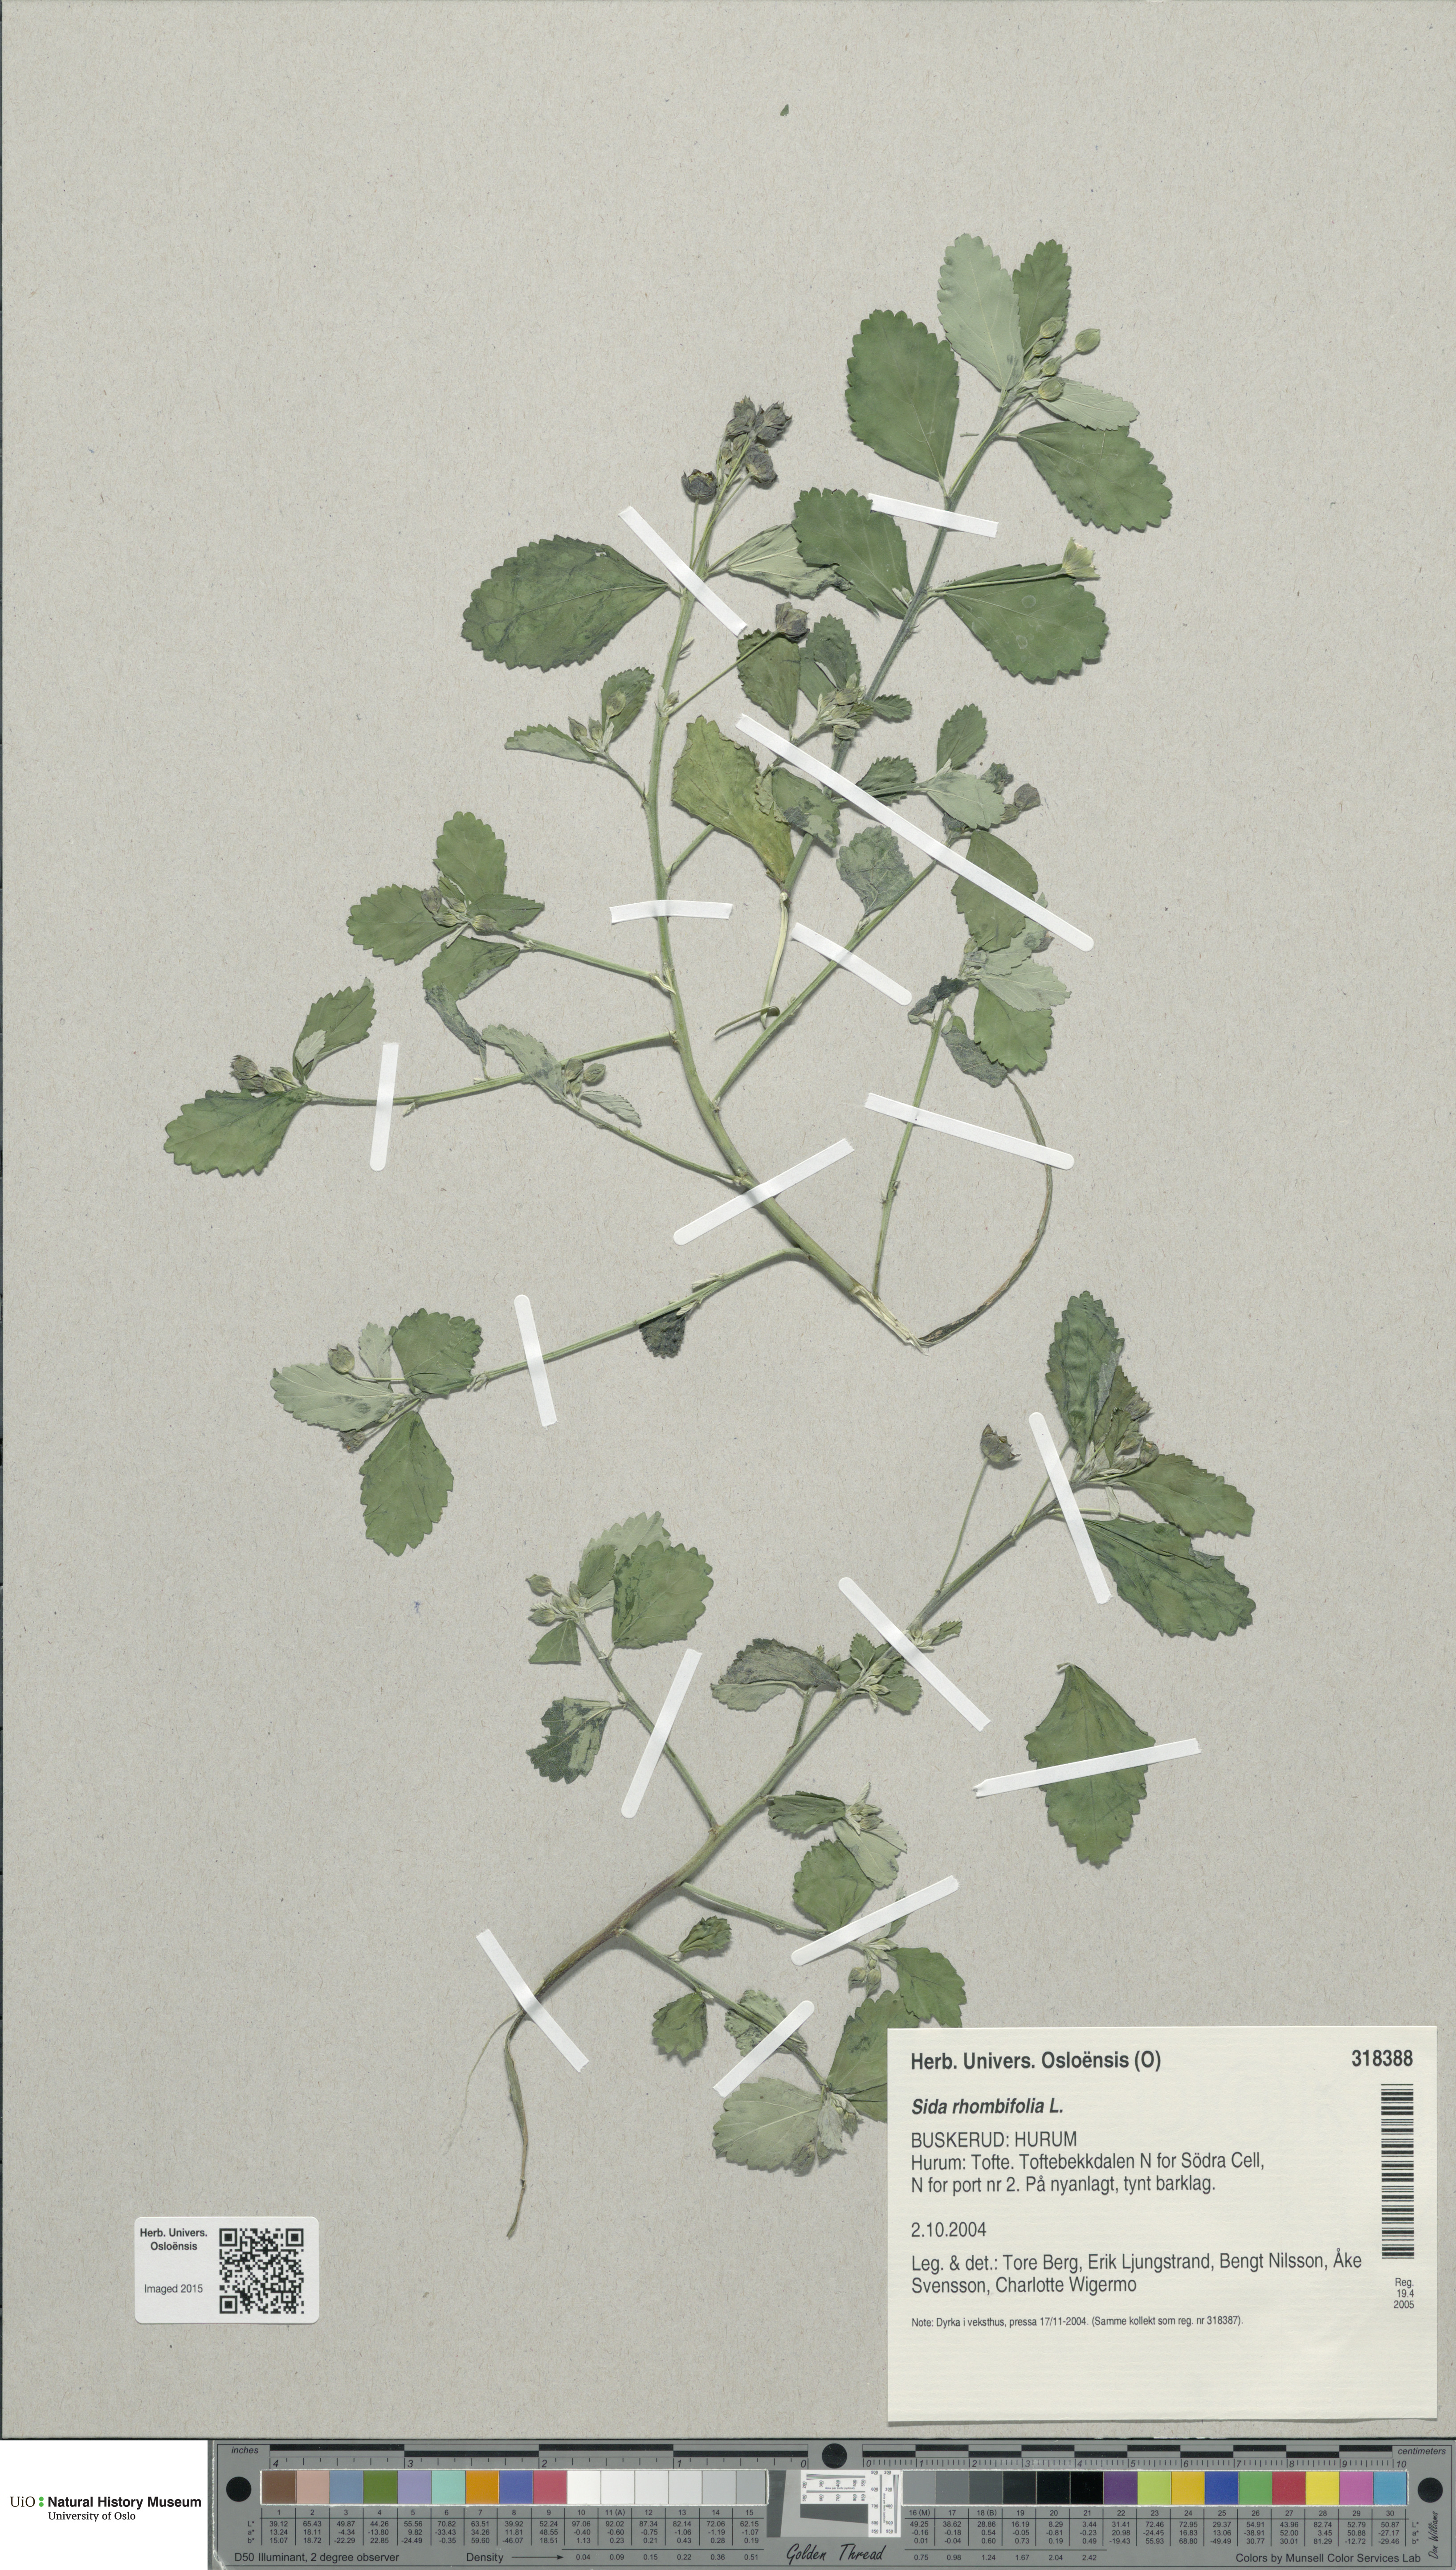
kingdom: Plantae
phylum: Tracheophyta
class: Magnoliopsida
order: Malvales
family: Malvaceae
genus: Sida
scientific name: Sida rhombifolia
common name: Queensland-hemp
